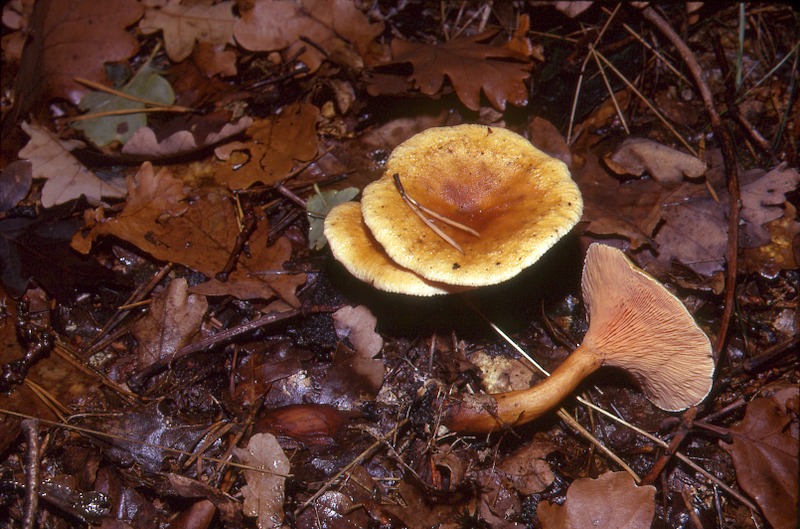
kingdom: Fungi
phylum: Basidiomycota
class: Agaricomycetes
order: Boletales
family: Hygrophoropsidaceae
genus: Hygrophoropsis
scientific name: Hygrophoropsis aurantiaca
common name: False chanterelle
